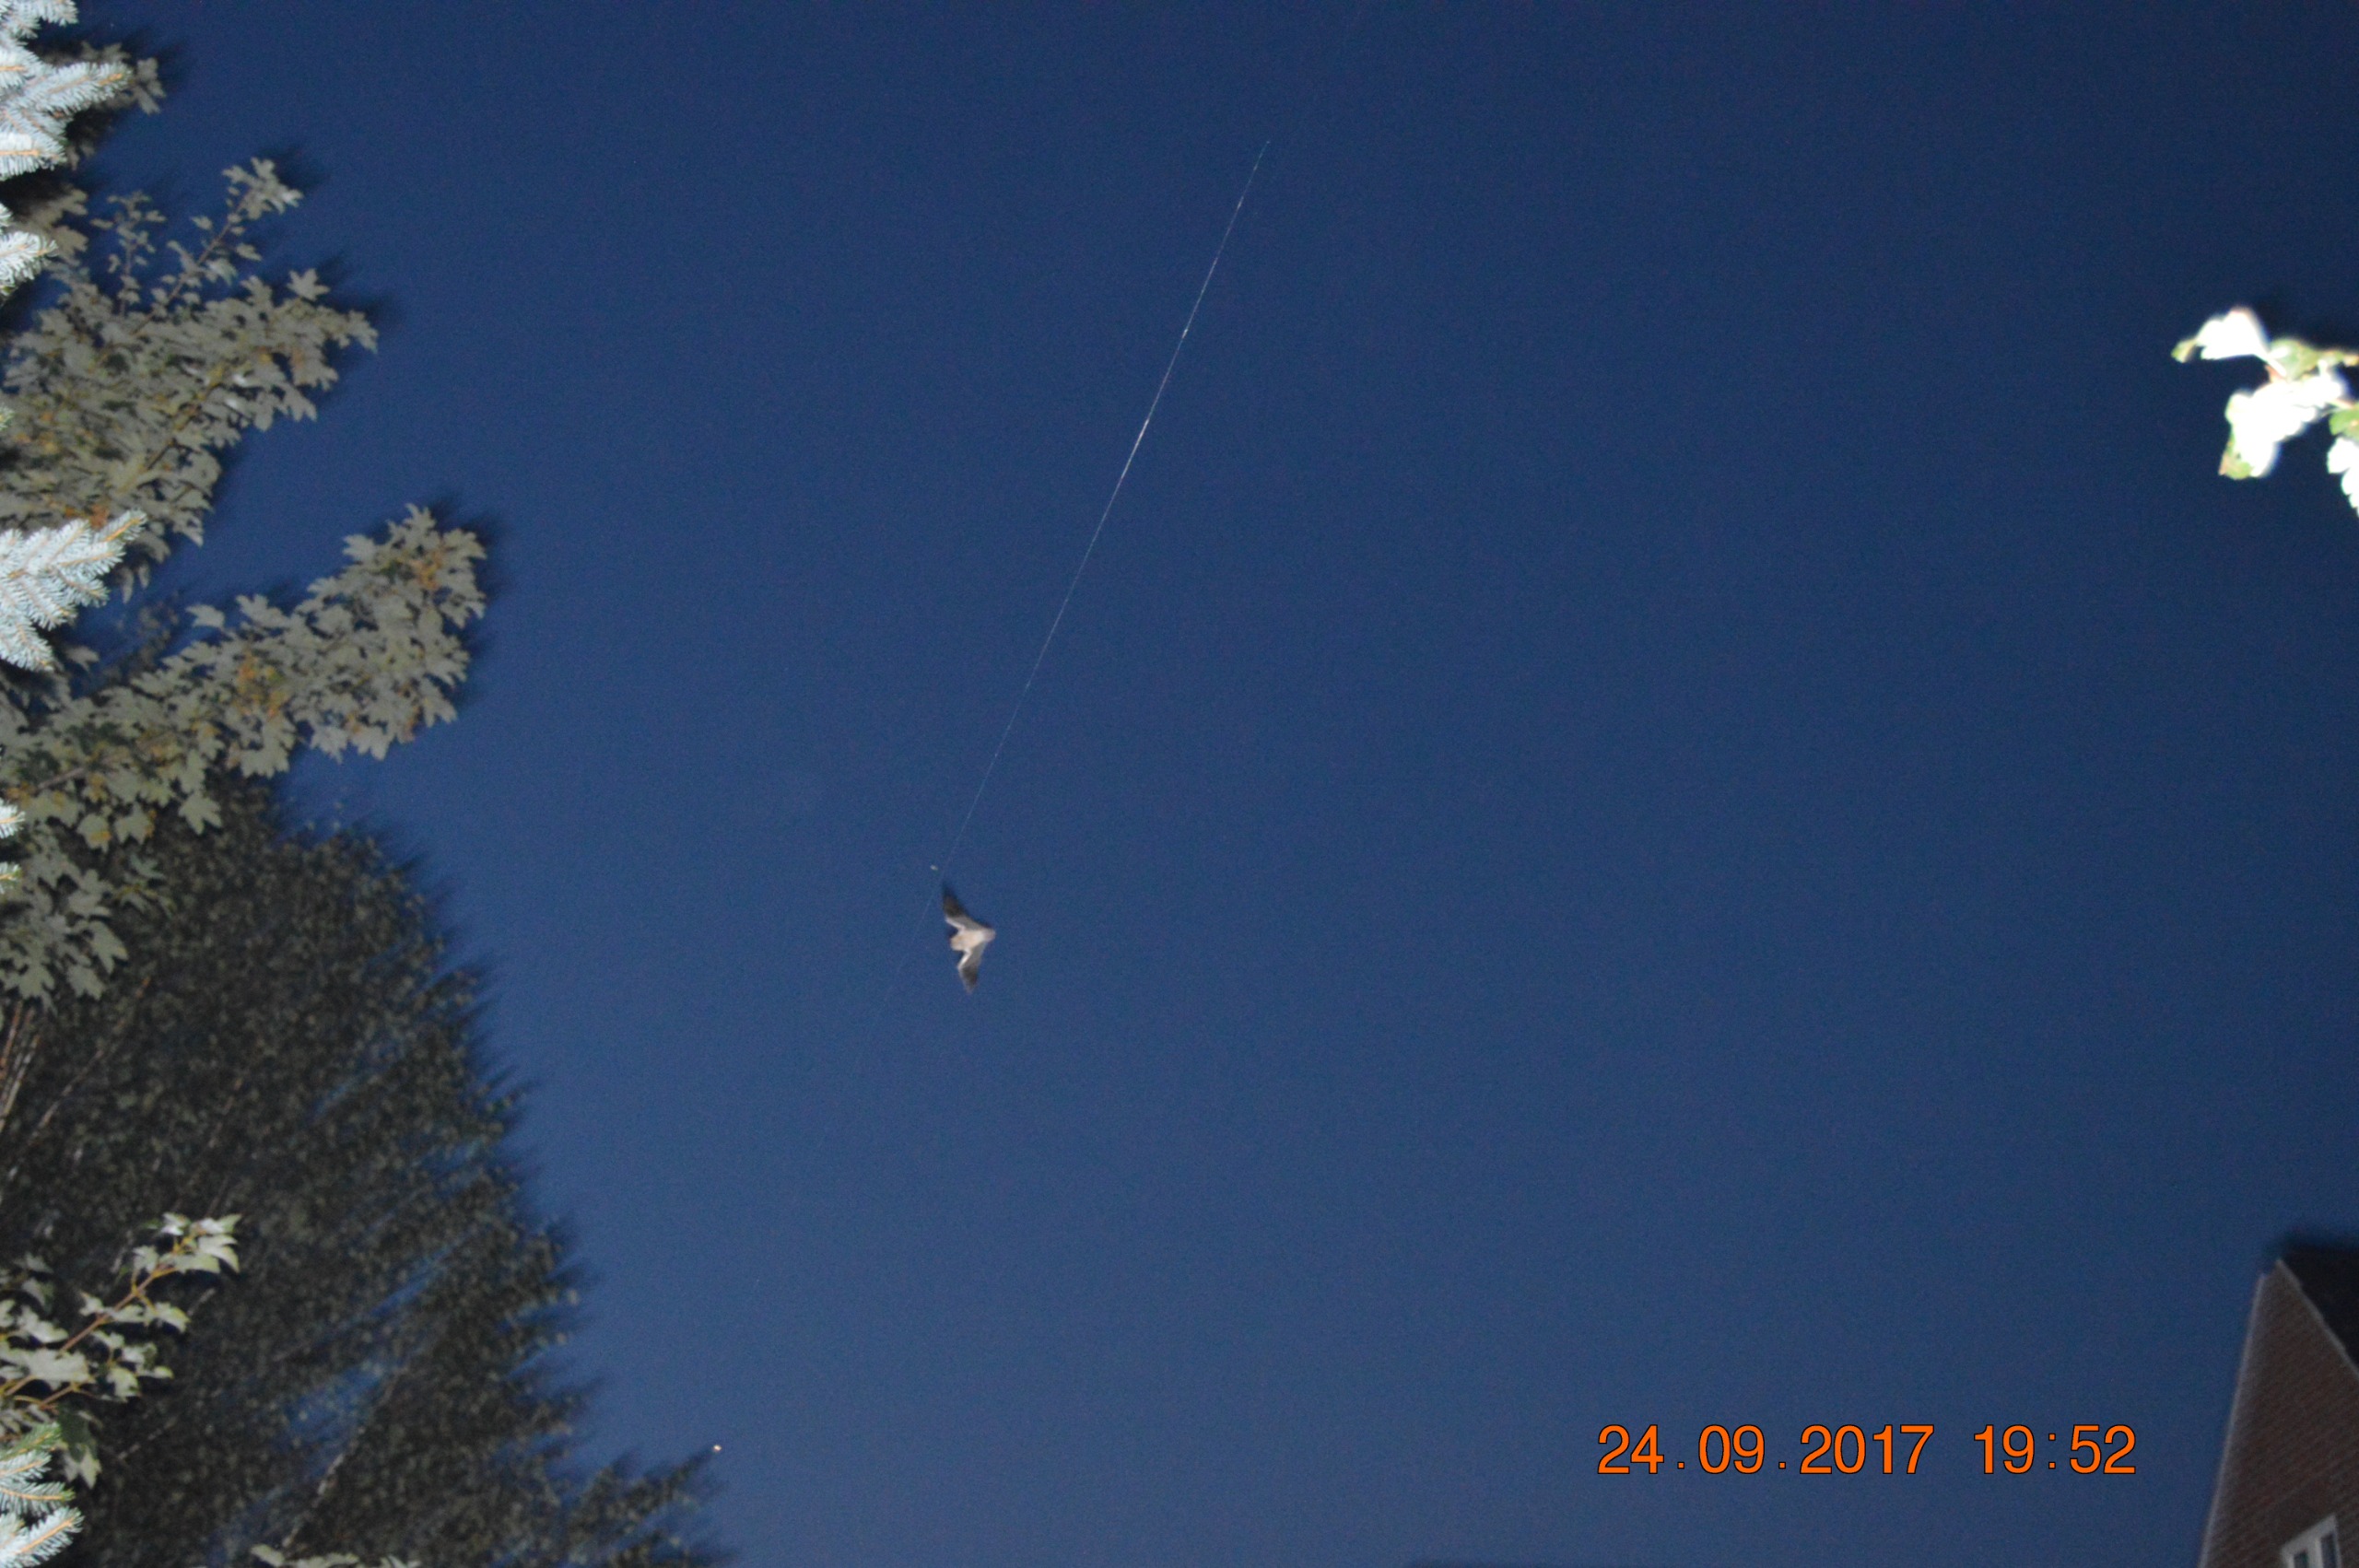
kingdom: Animalia
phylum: Chordata
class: Mammalia
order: Chiroptera
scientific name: Chiroptera
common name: Flagermus
